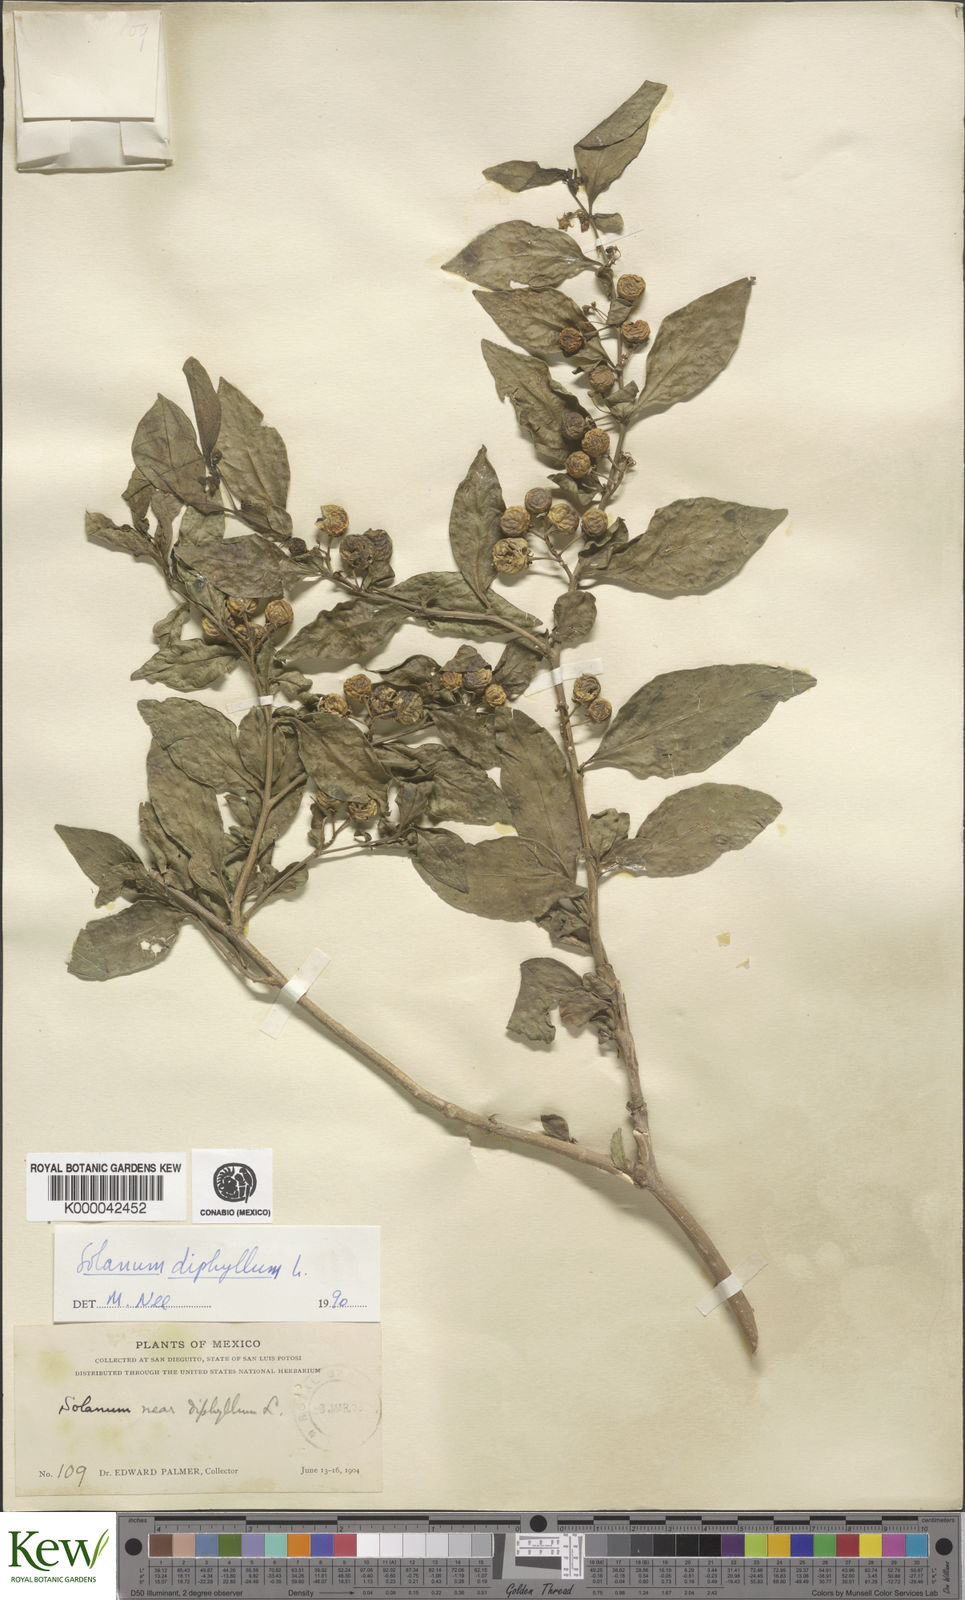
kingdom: Plantae
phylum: Tracheophyta
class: Magnoliopsida
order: Solanales
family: Solanaceae
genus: Solanum
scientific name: Solanum
